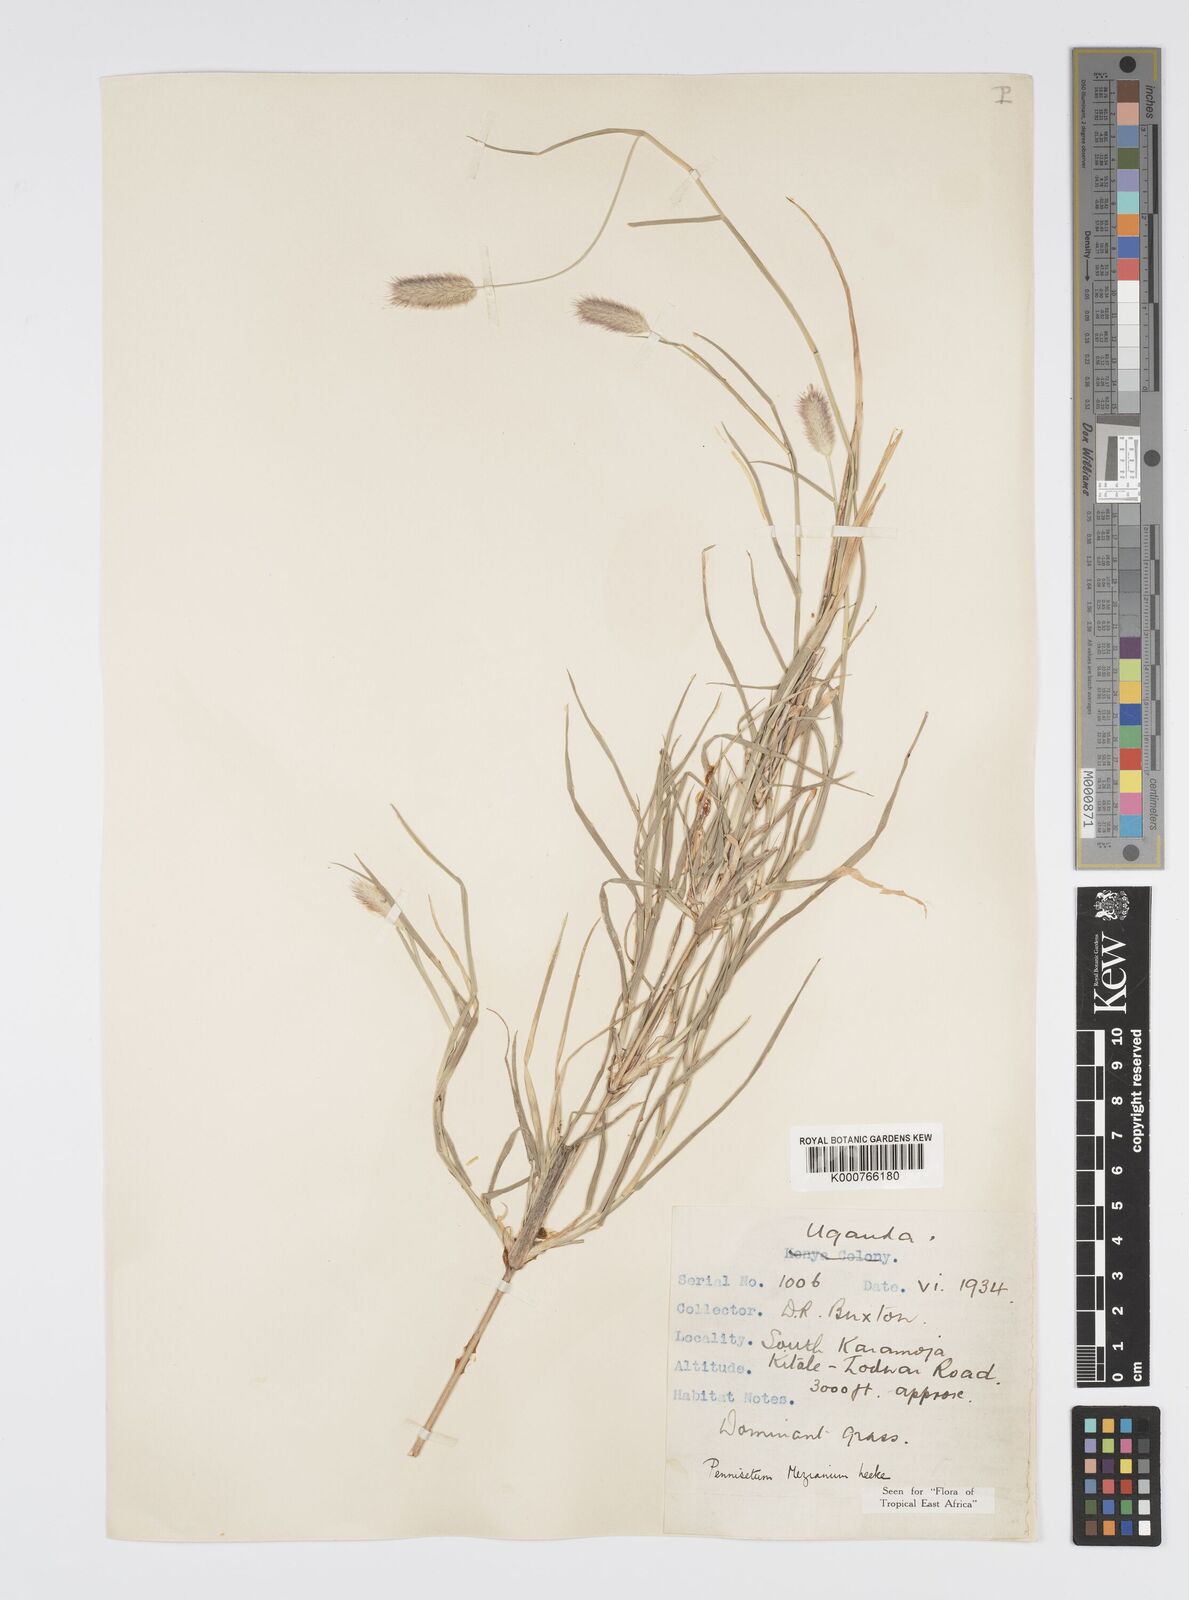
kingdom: Plantae
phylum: Tracheophyta
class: Liliopsida
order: Poales
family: Poaceae
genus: Cenchrus
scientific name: Cenchrus mezianus
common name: Bamboo grass
